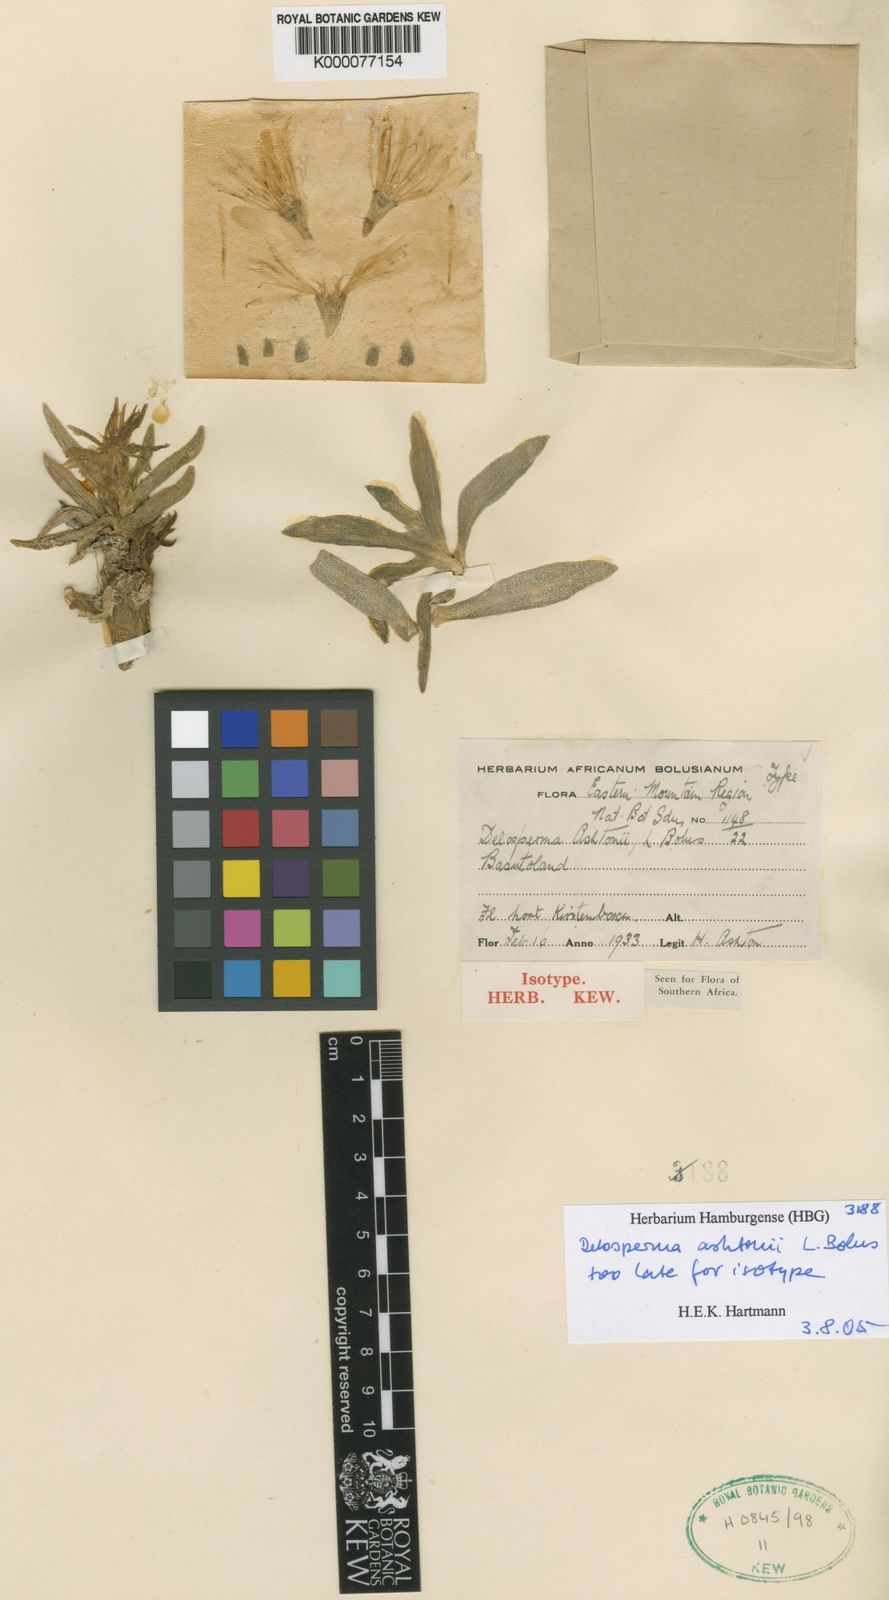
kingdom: Plantae
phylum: Tracheophyta
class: Magnoliopsida
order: Caryophyllales
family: Aizoaceae
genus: Delosperma
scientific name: Delosperma ashtonii
